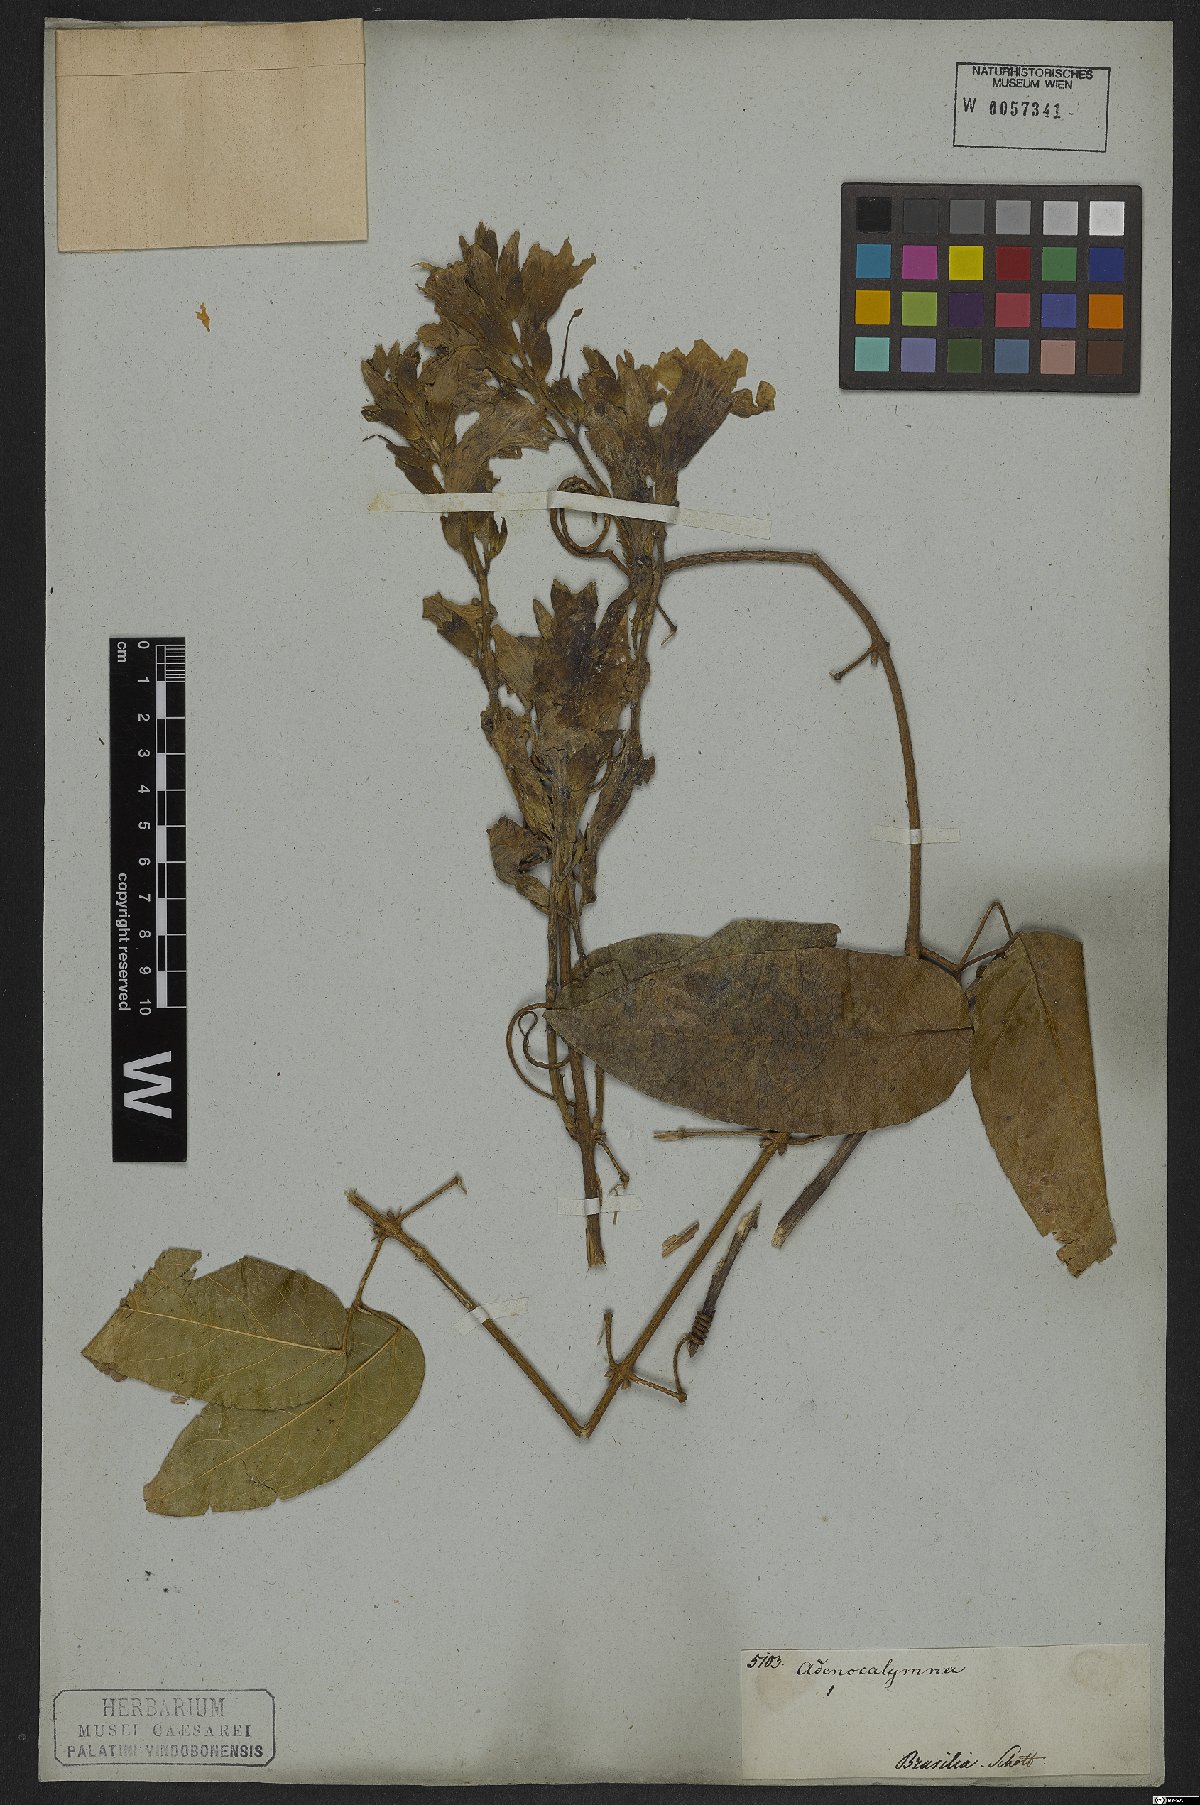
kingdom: Plantae
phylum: Tracheophyta
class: Magnoliopsida
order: Lamiales
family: Bignoniaceae
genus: Adenocalymma
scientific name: Adenocalymma bracteatum
